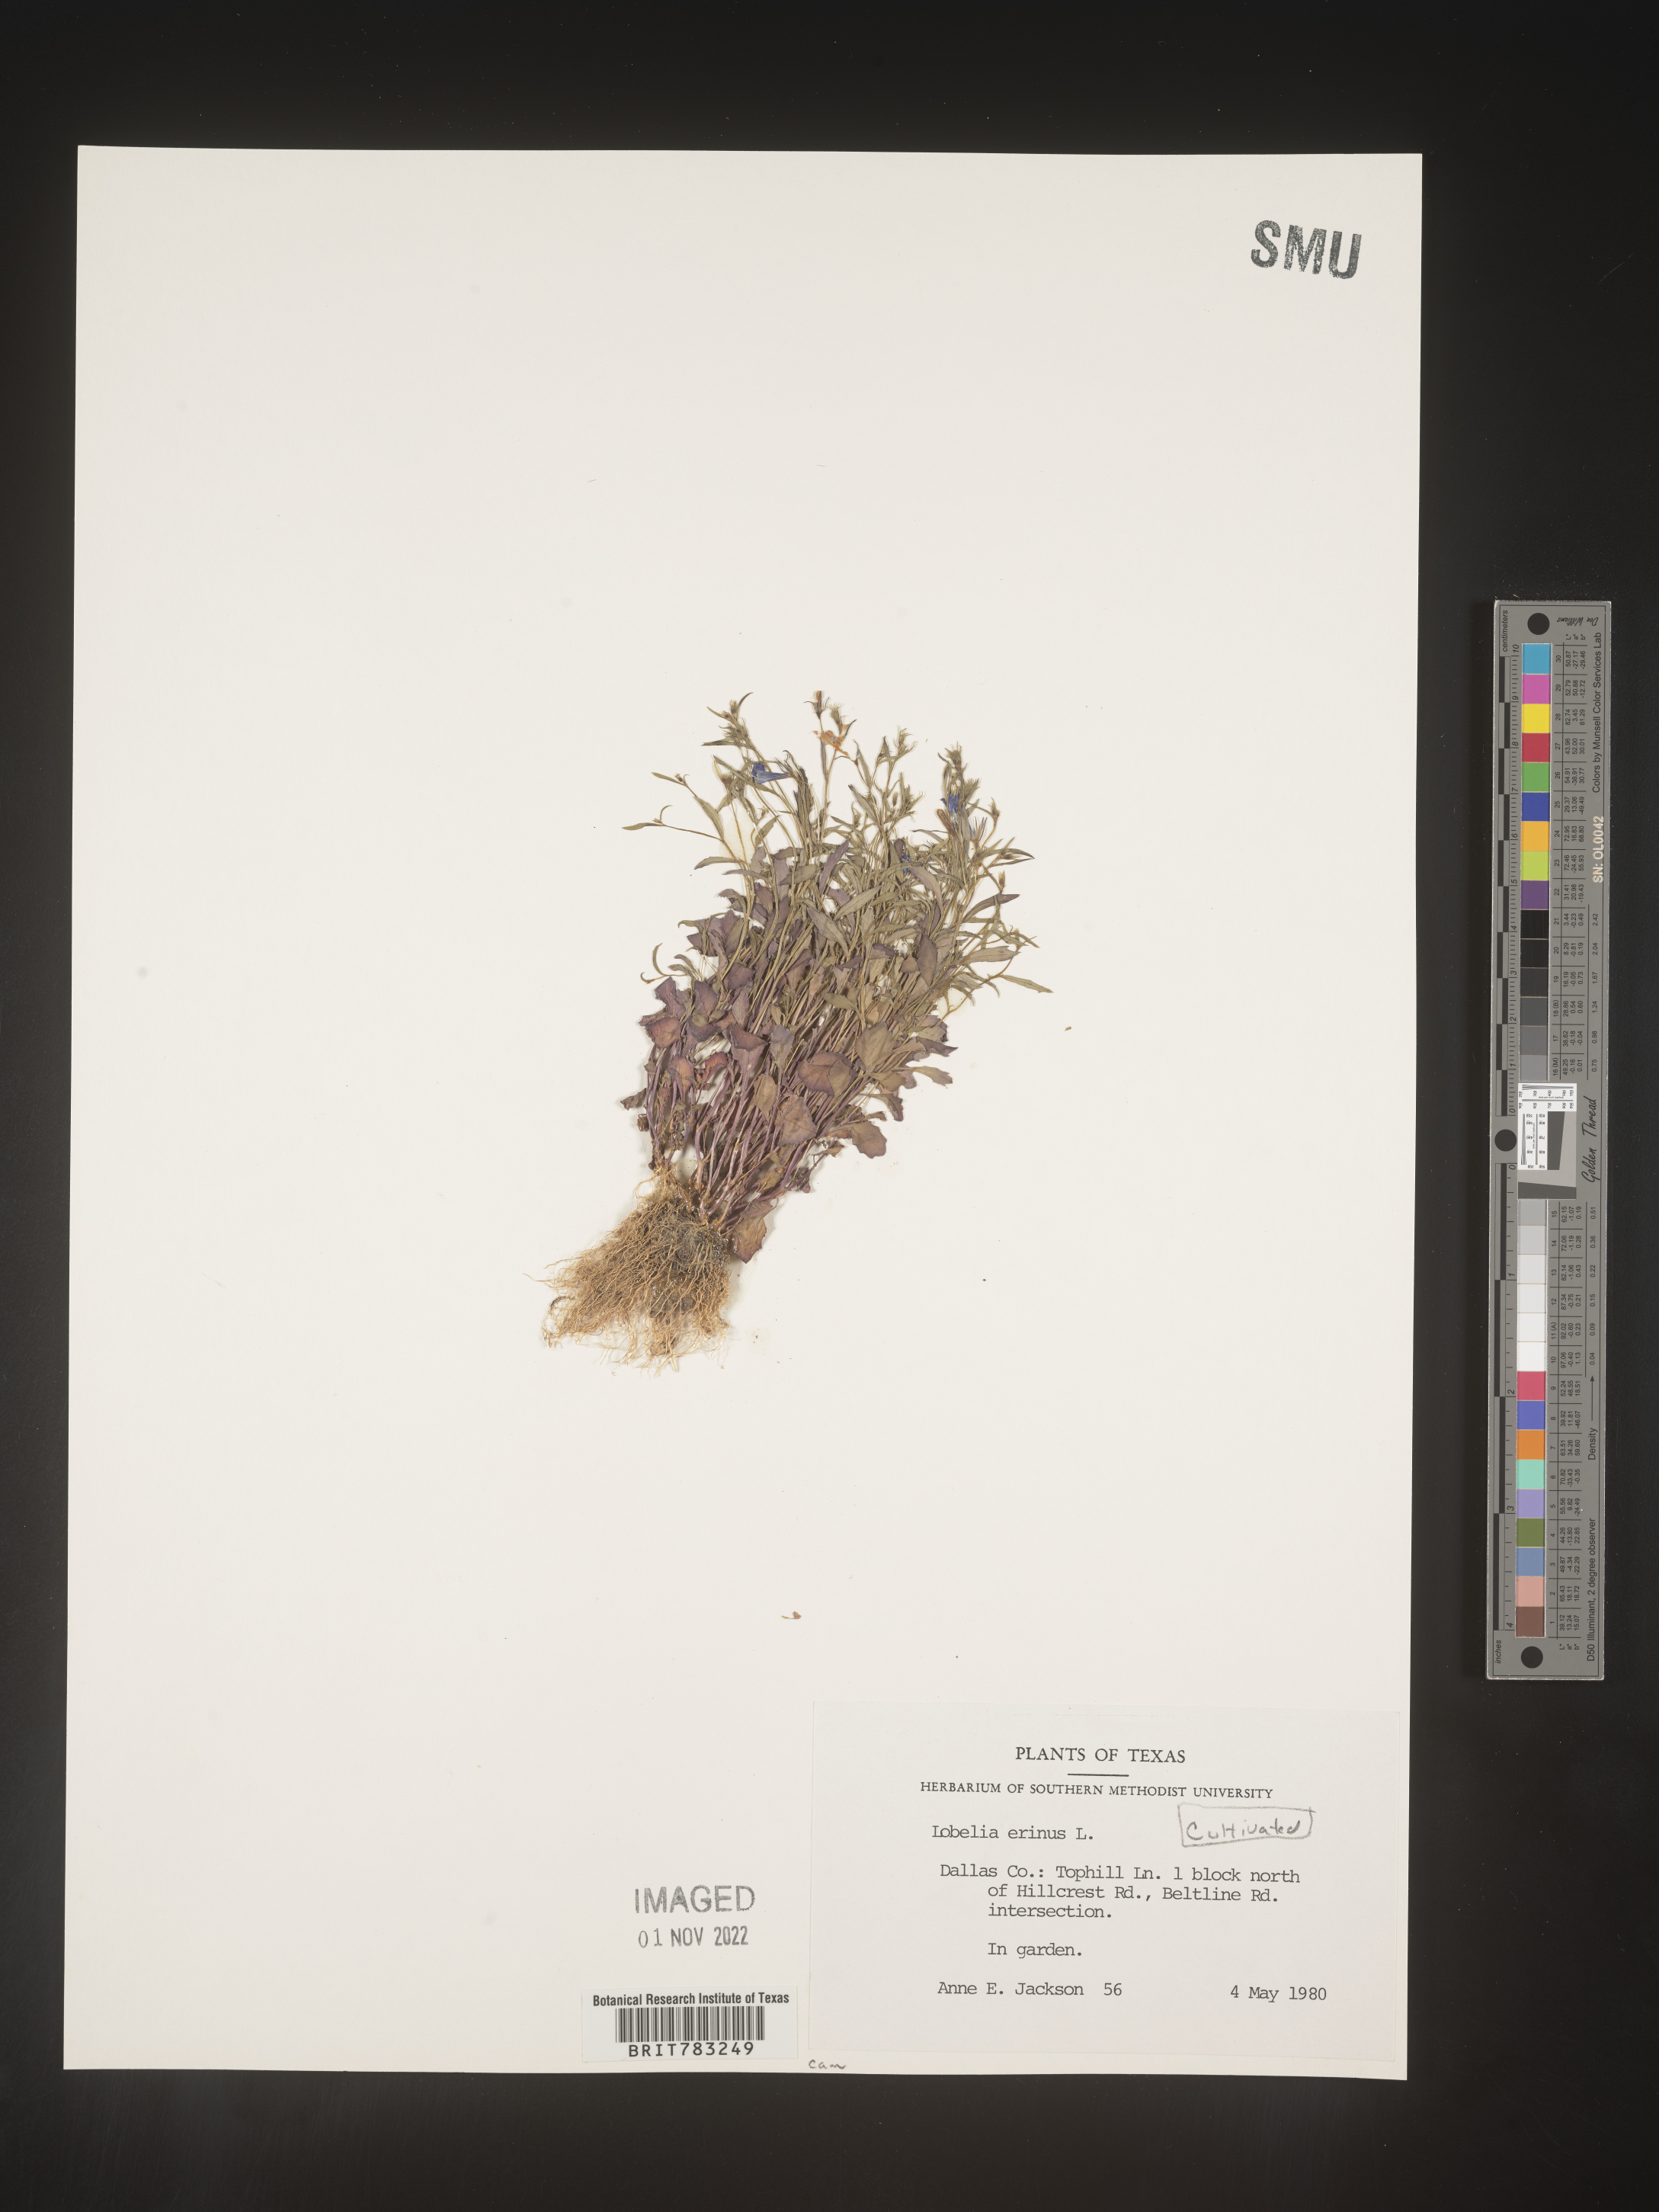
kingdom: Plantae
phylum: Tracheophyta
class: Magnoliopsida
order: Asterales
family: Campanulaceae
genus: Lobelia
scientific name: Lobelia
